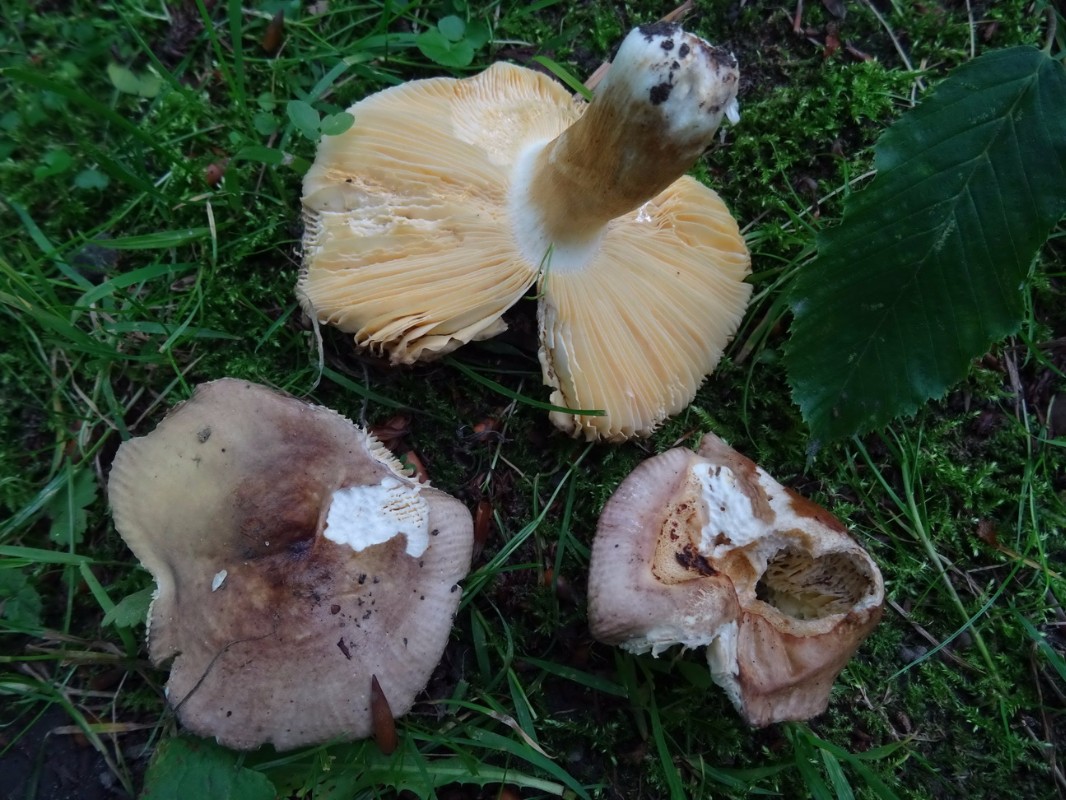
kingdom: Fungi
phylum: Basidiomycota
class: Agaricomycetes
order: Russulales
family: Russulaceae
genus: Russula
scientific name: Russula carpini
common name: avnbøg-skørhat
